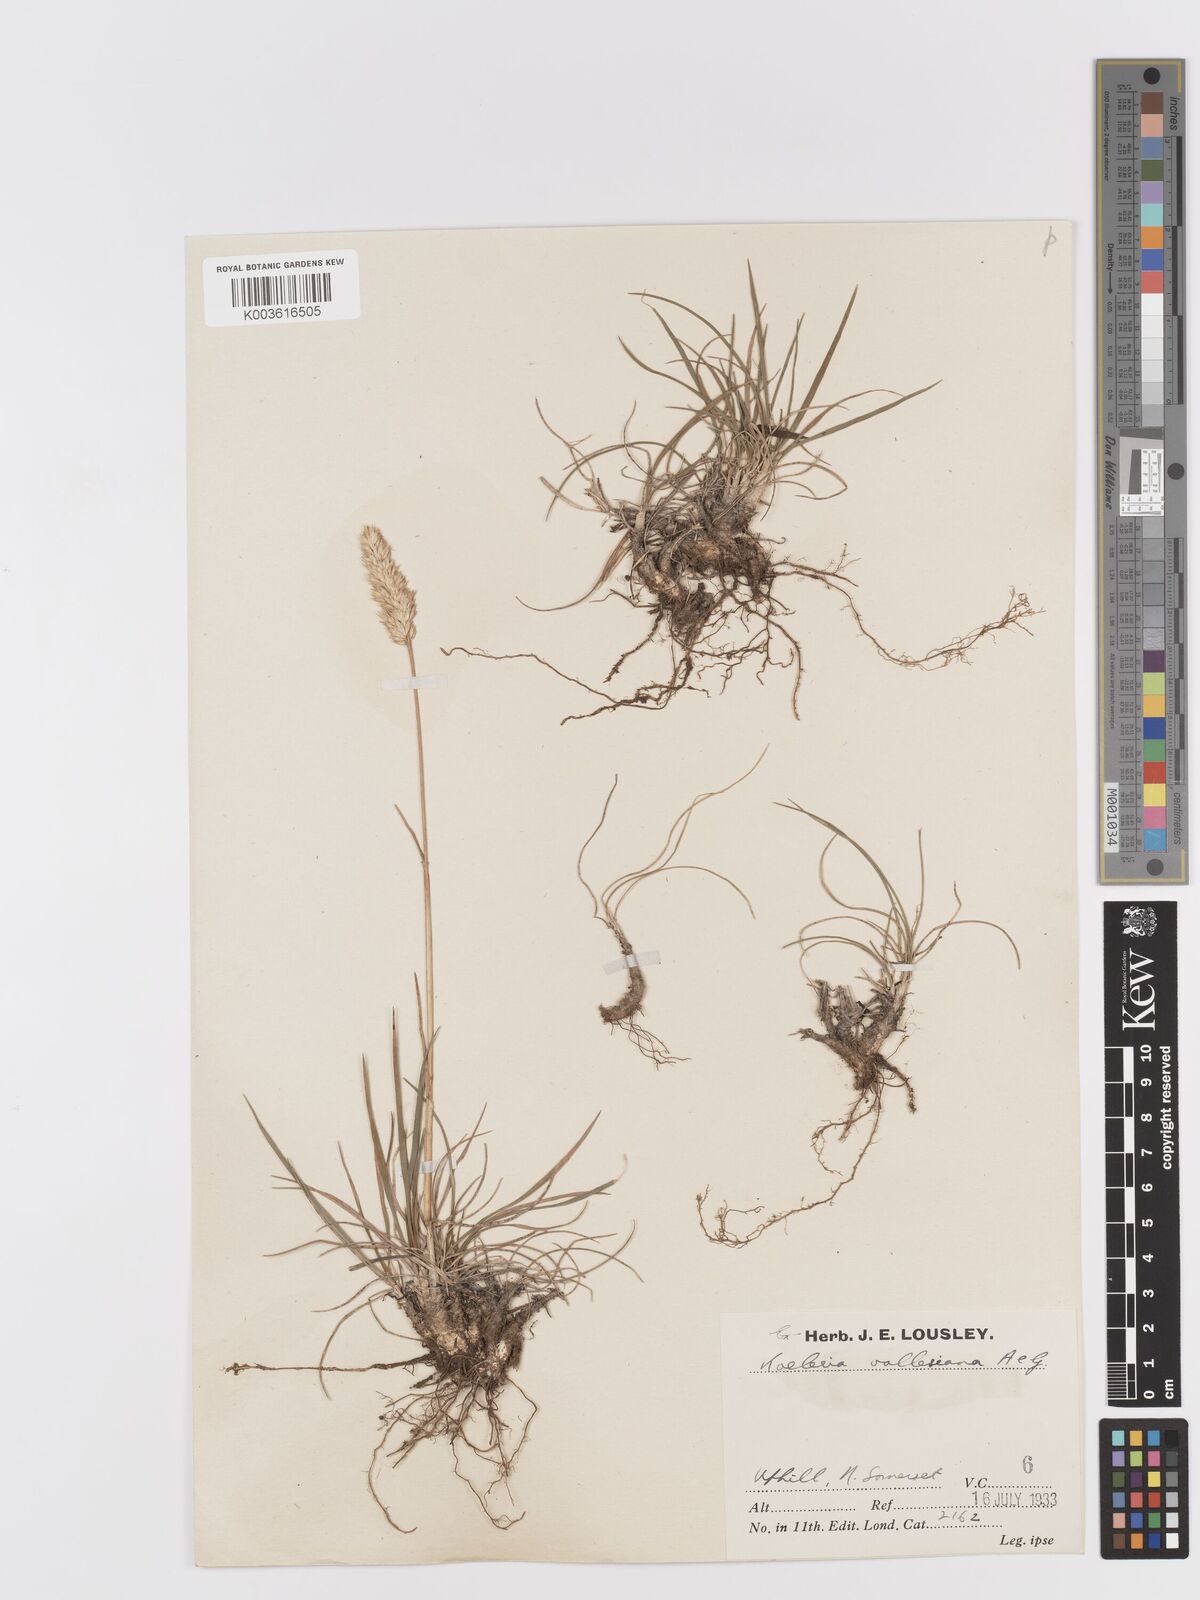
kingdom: Plantae
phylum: Tracheophyta
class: Liliopsida
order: Poales
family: Poaceae
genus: Koeleria
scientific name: Koeleria vallesiana
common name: Somerset hair-grass
